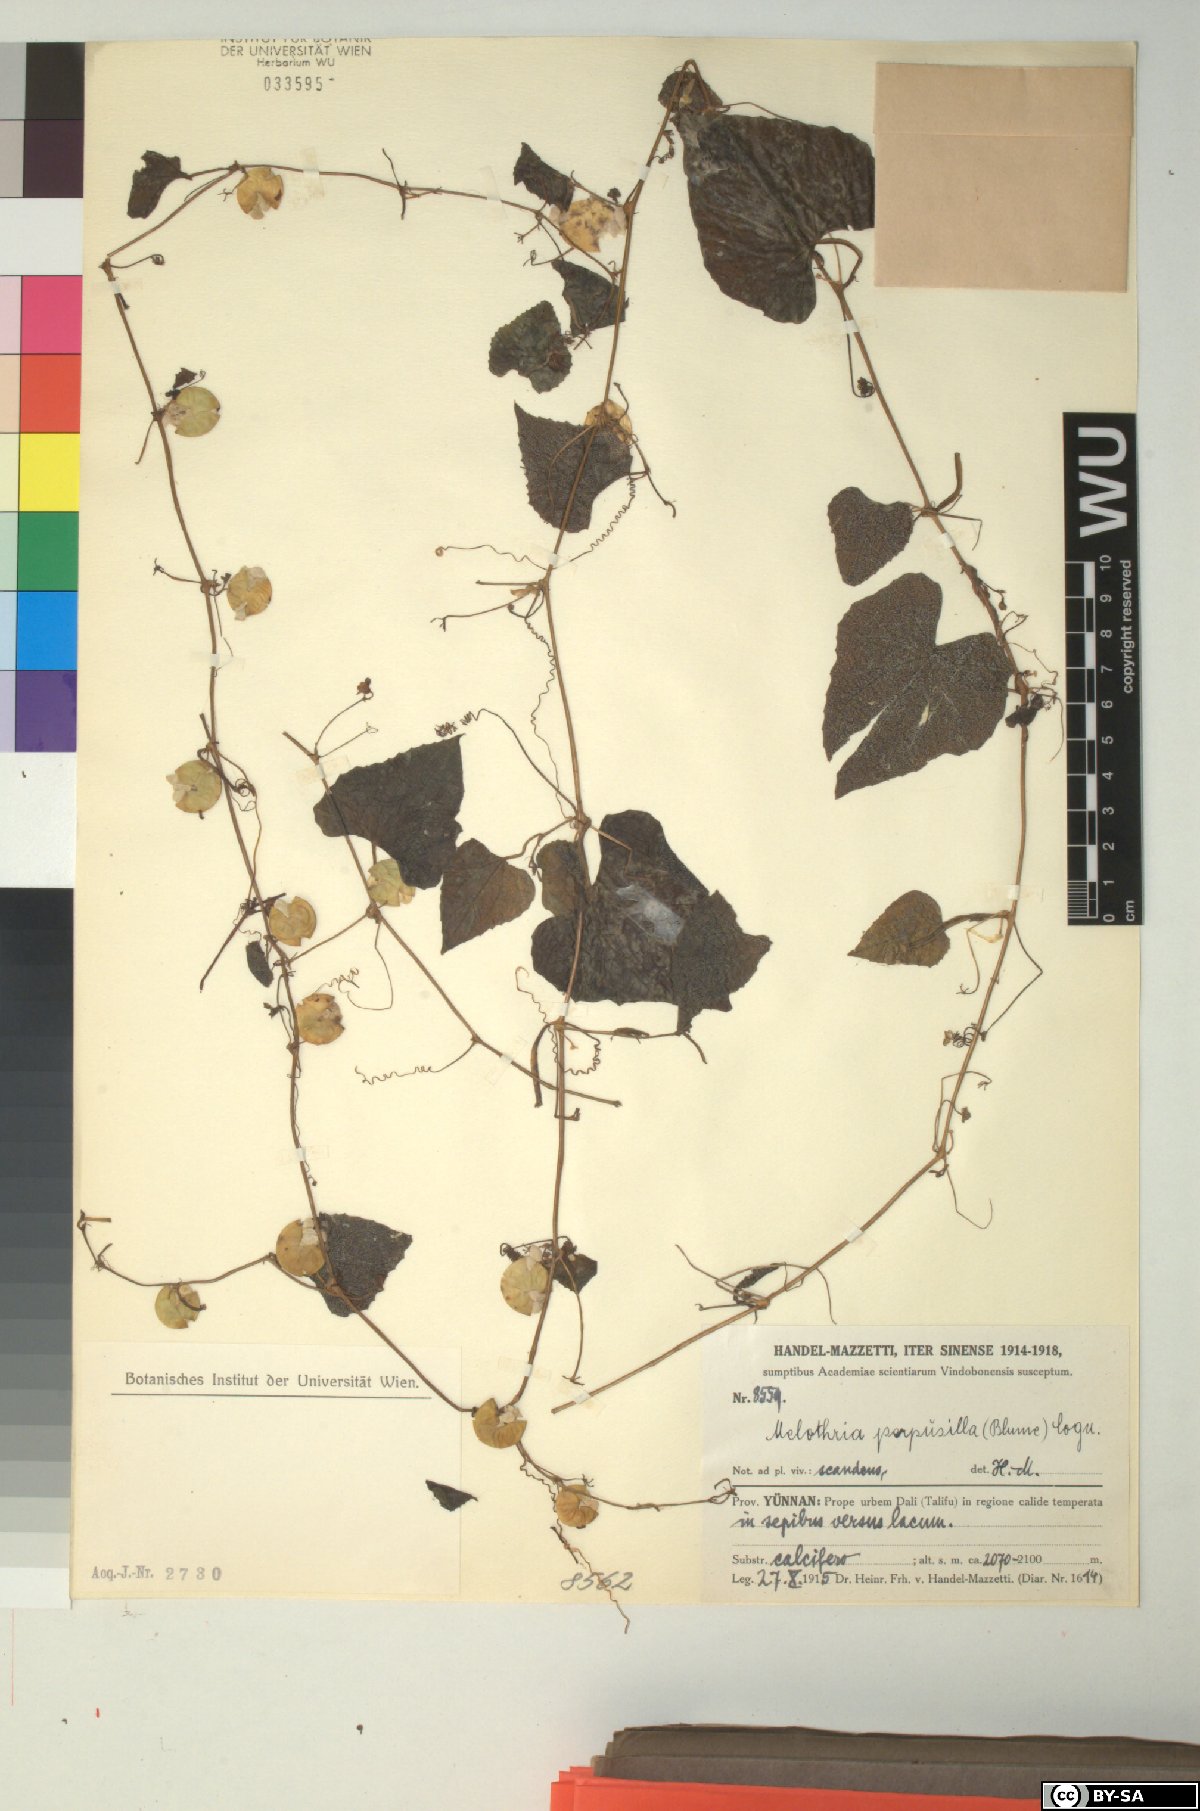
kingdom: Plantae
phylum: Tracheophyta
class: Magnoliopsida
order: Cucurbitales
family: Cucurbitaceae
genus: Zehneria
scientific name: Zehneria scabra
